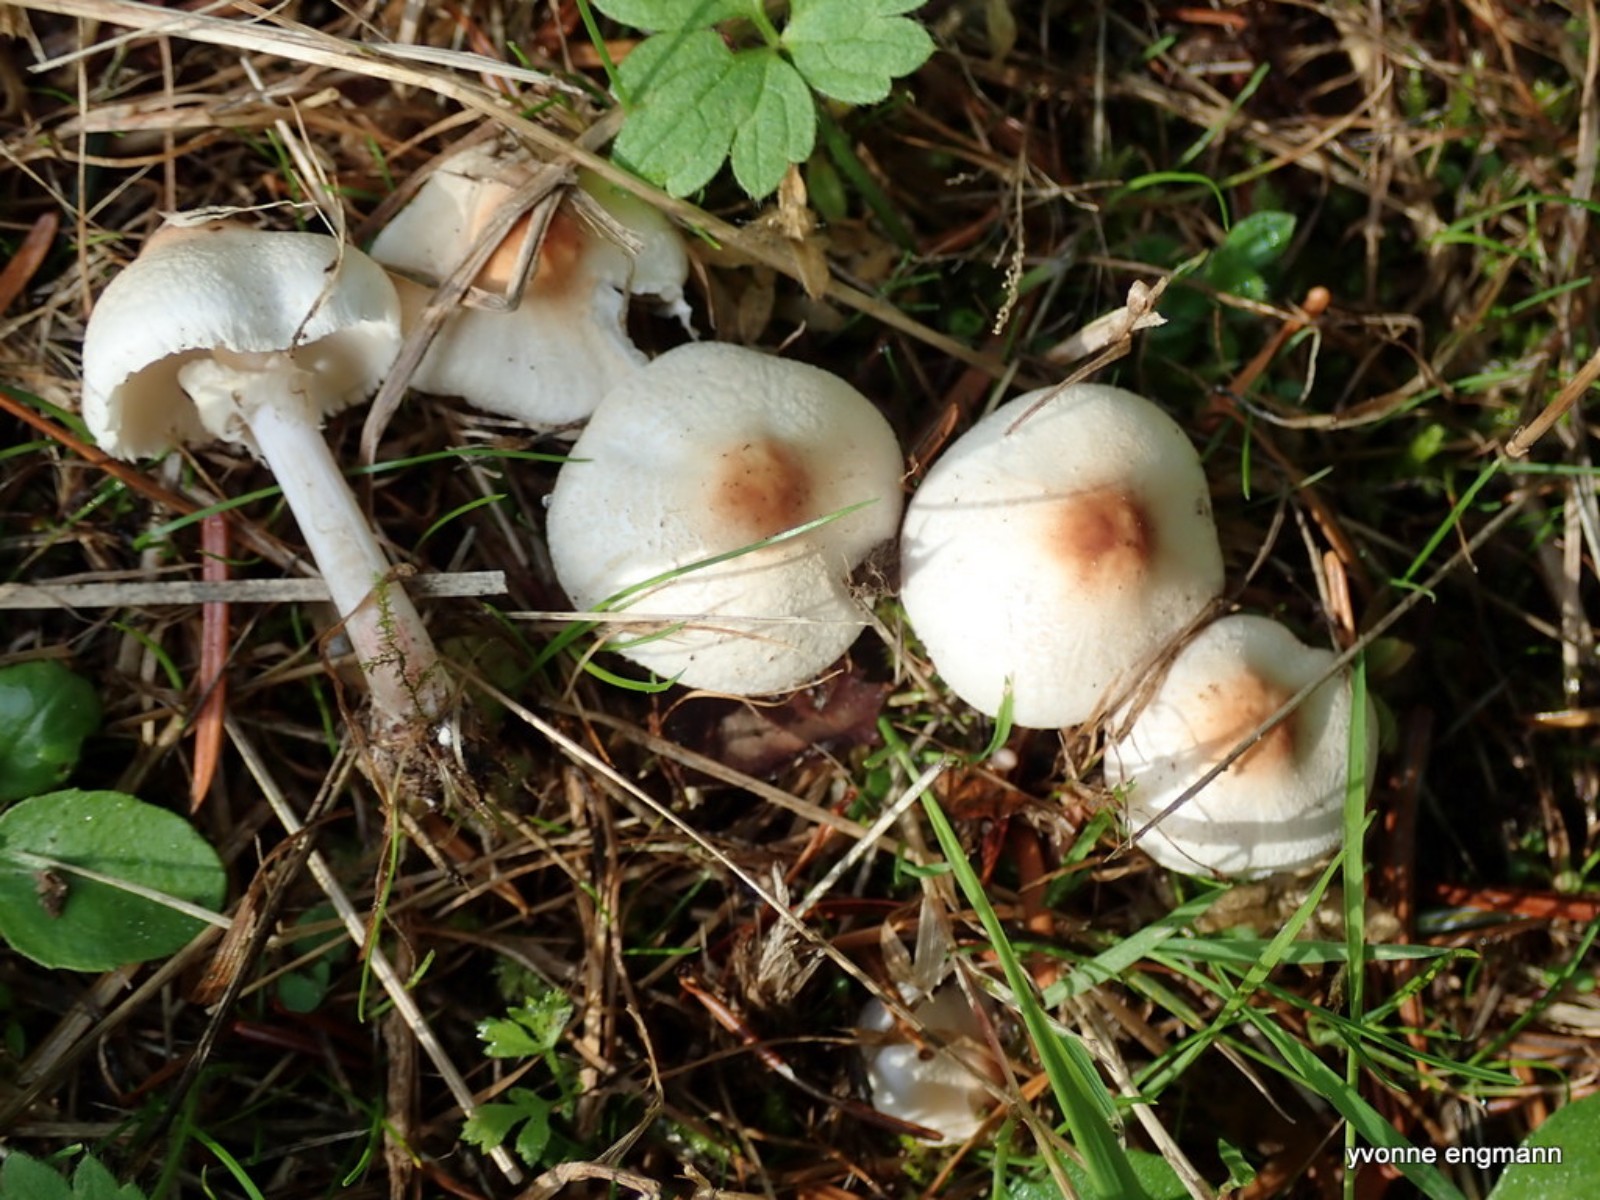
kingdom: Fungi
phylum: Basidiomycota
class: Agaricomycetes
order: Agaricales
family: Agaricaceae
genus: Lepiota
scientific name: Lepiota cristata
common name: stinkende parasolhat
